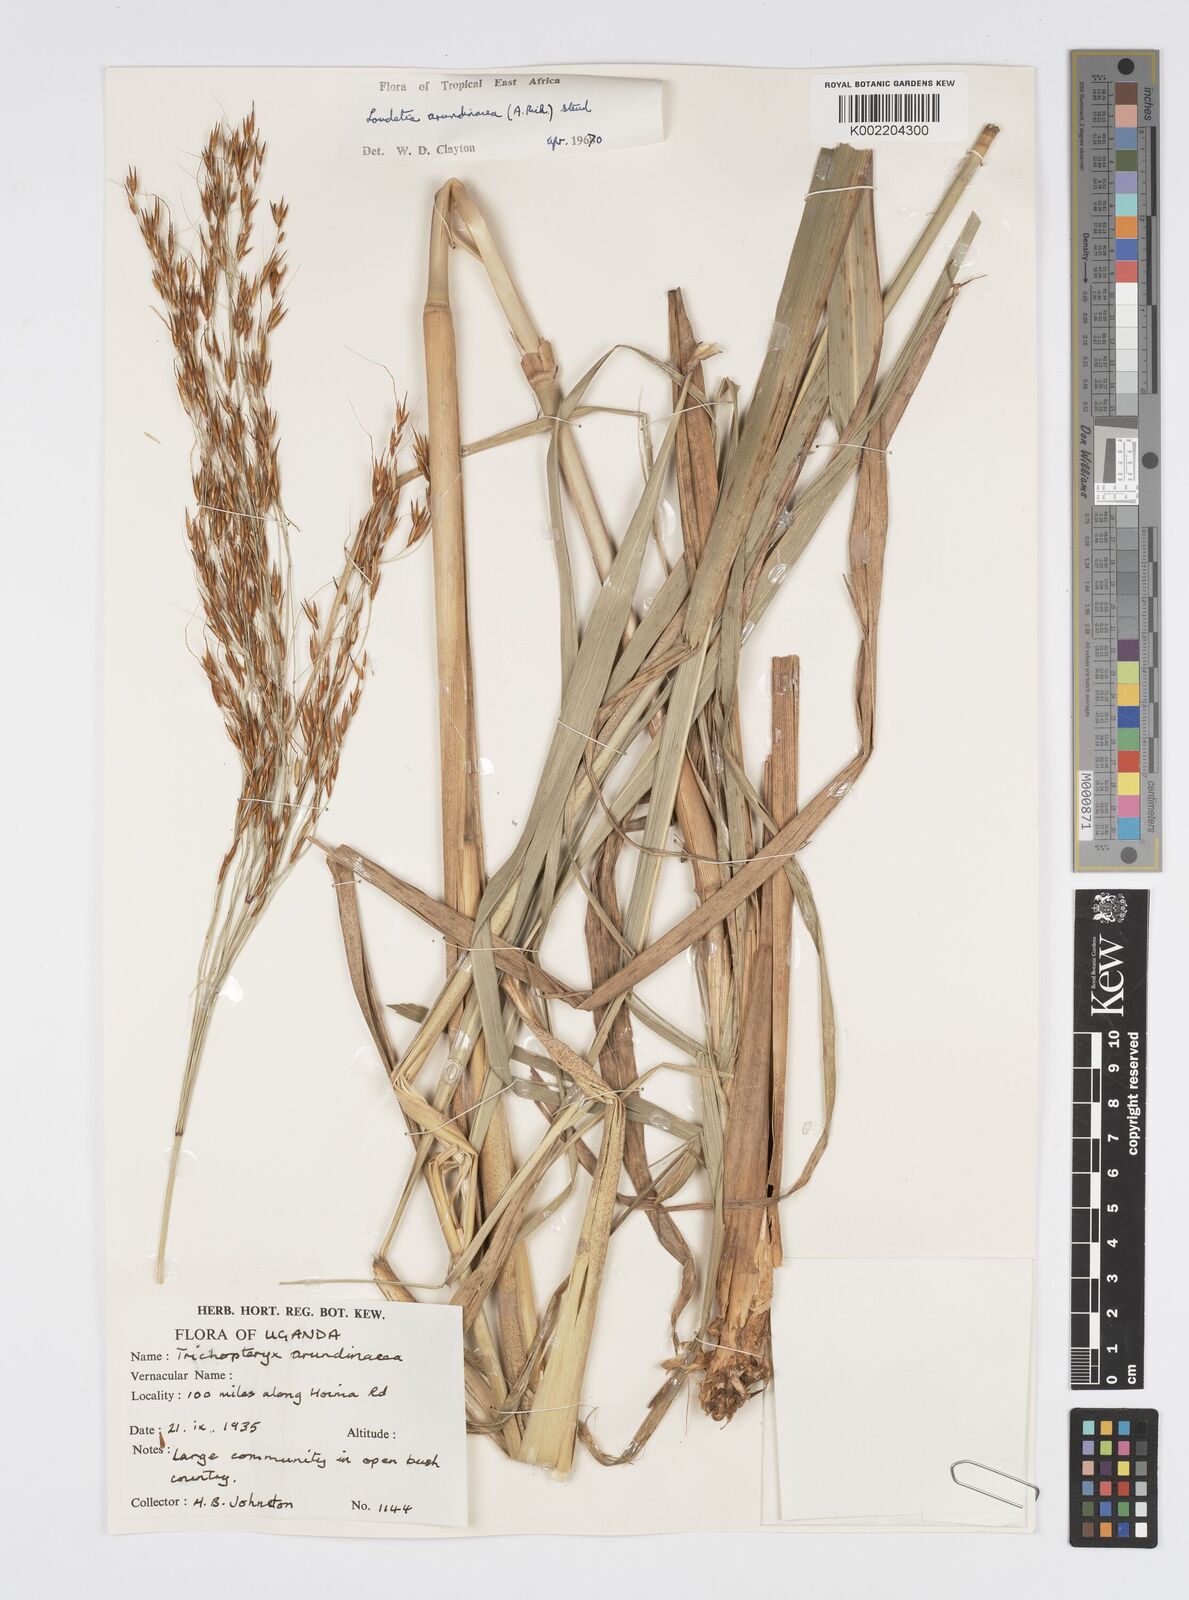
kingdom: Plantae
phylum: Tracheophyta
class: Liliopsida
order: Poales
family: Poaceae
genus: Loudetia
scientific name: Loudetia arundinacea
